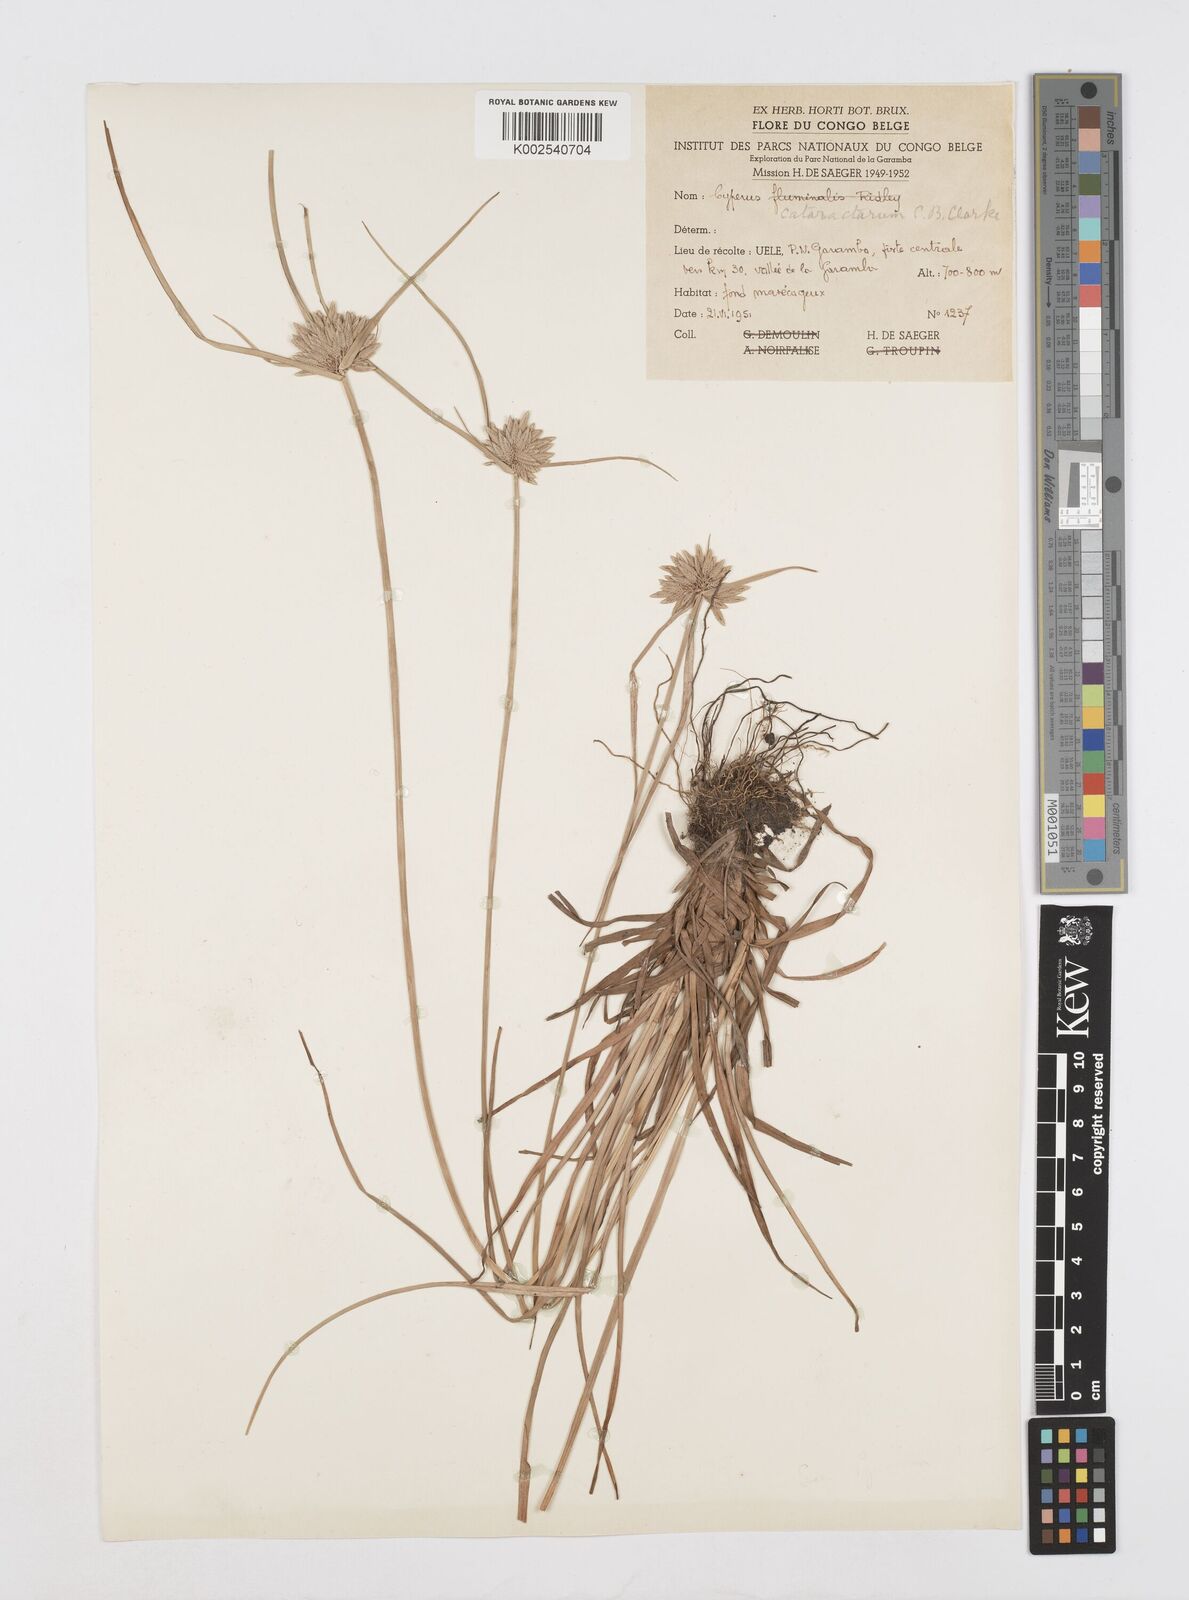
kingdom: Plantae
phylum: Tracheophyta
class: Liliopsida
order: Poales
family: Cyperaceae
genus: Cyperus
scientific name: Cyperus smithianus
